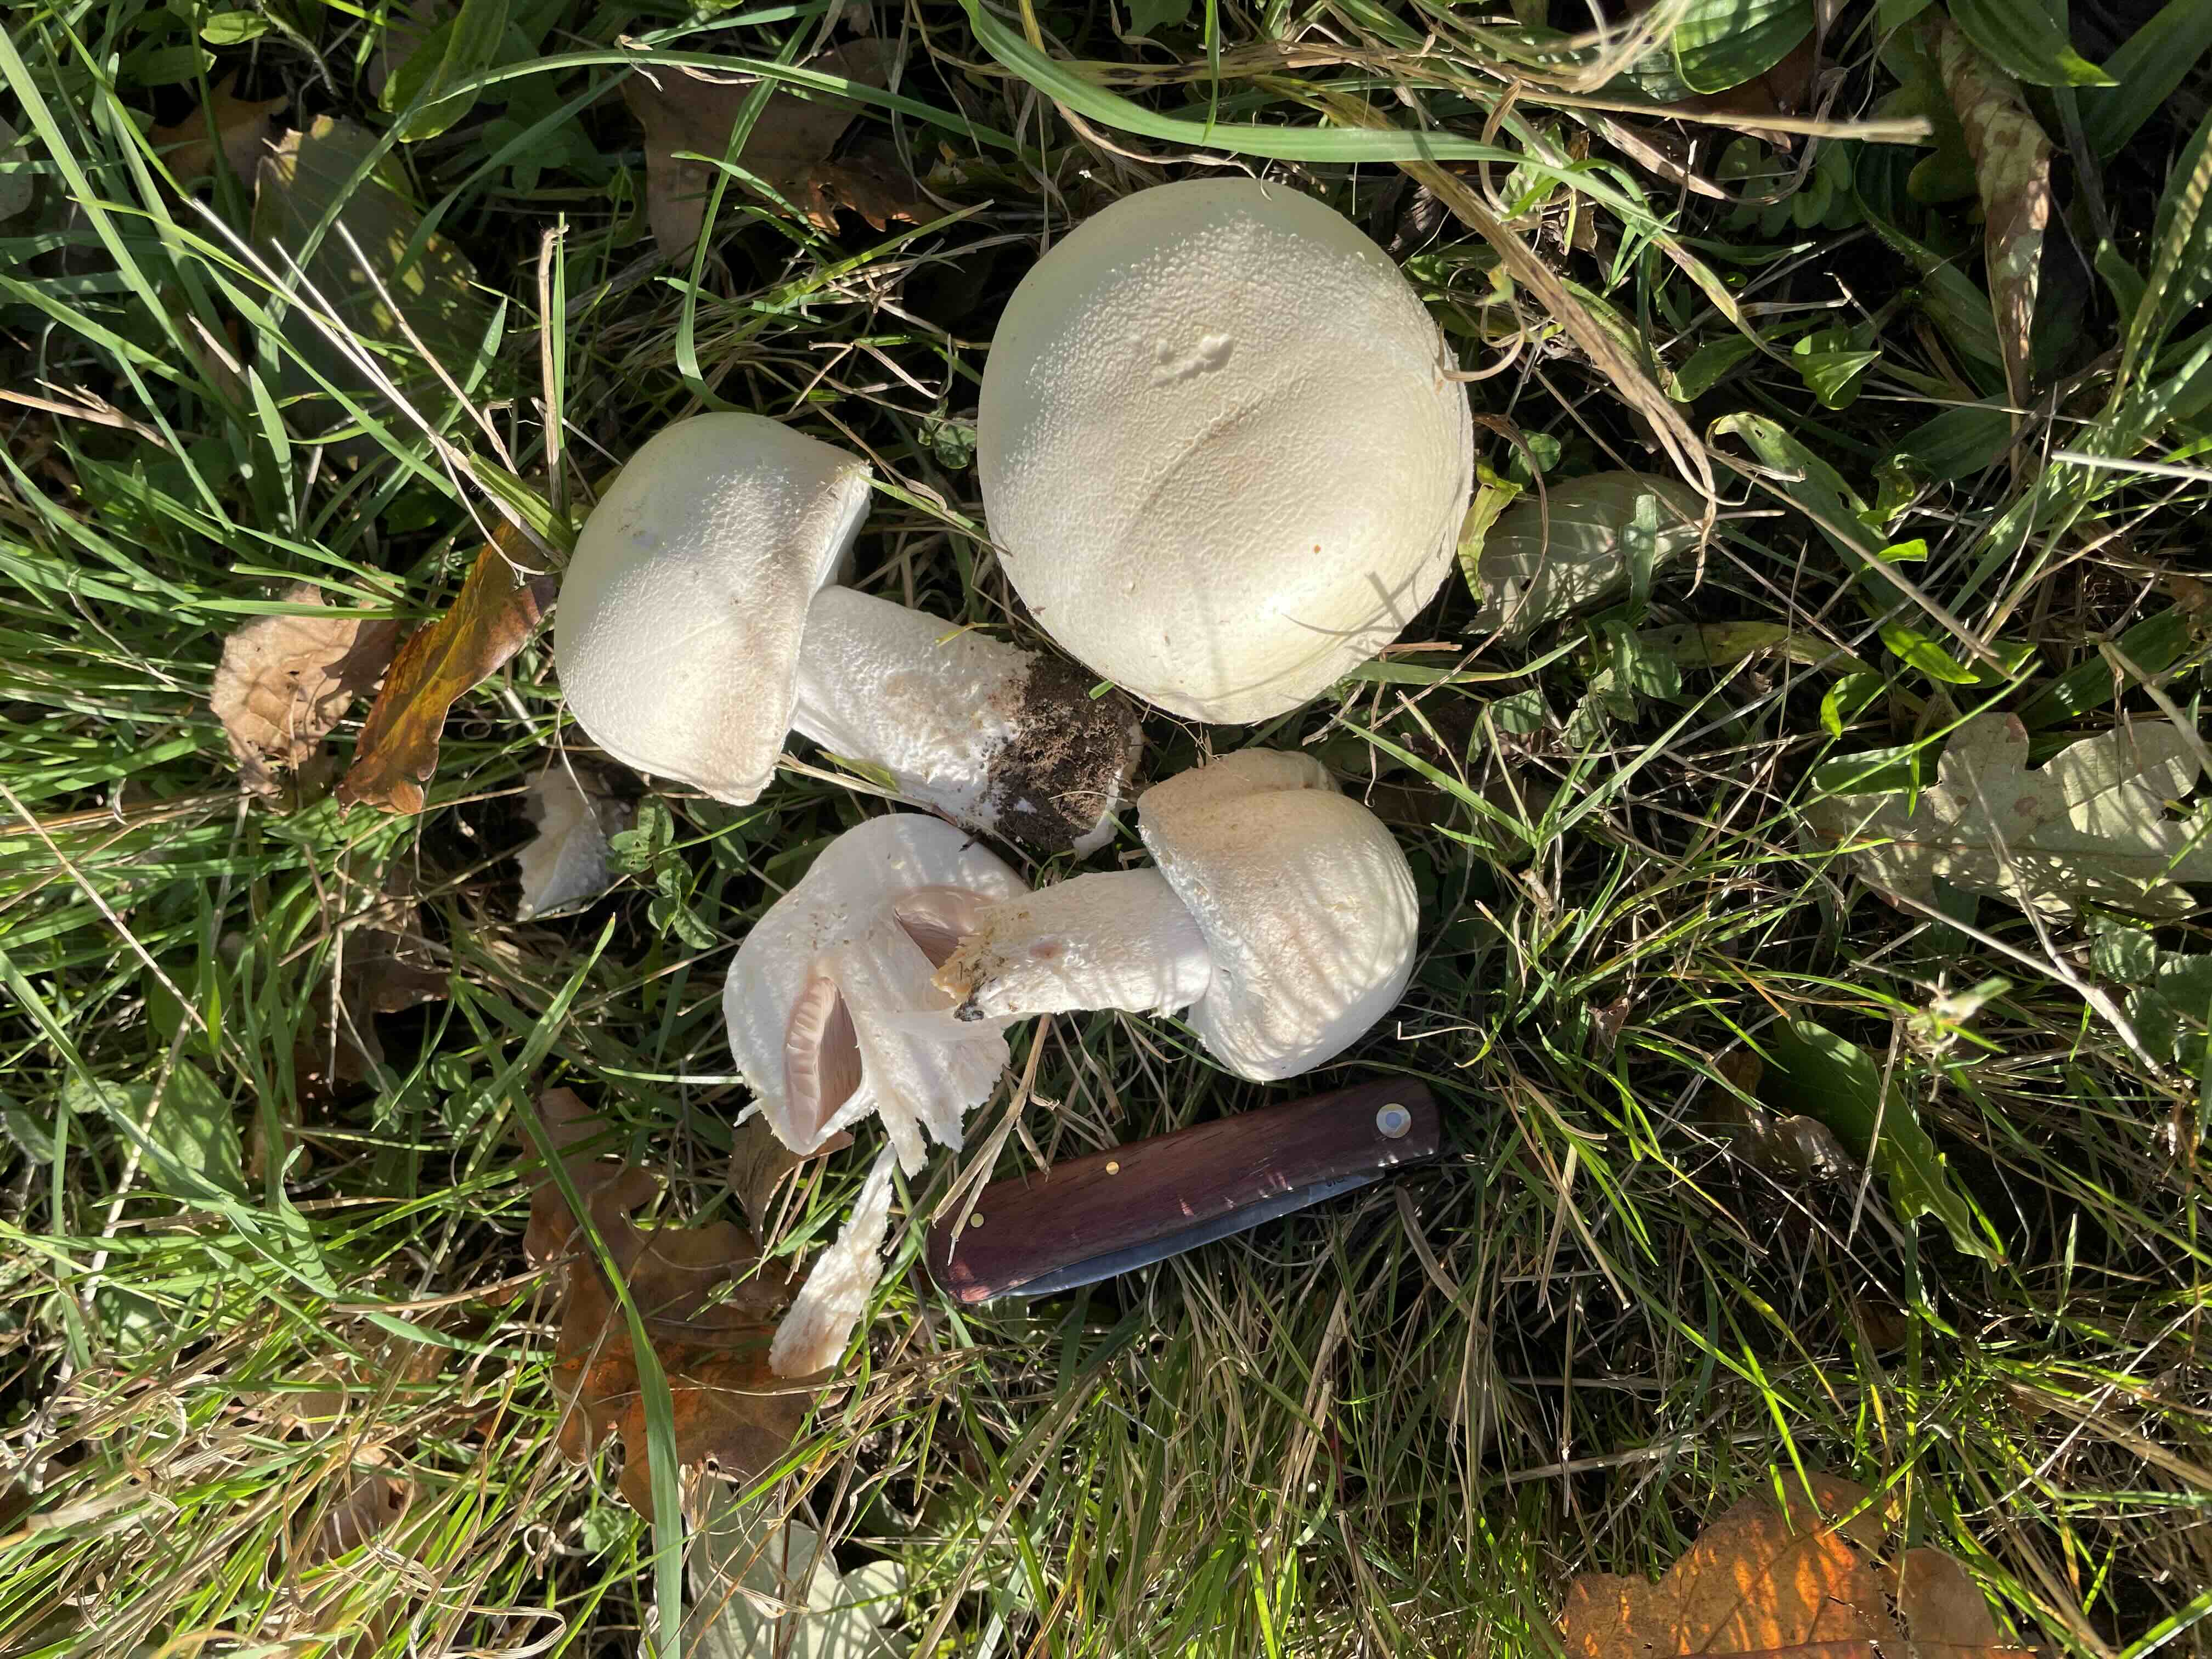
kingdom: Fungi
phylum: Basidiomycota
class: Agaricomycetes
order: Agaricales
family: Agaricaceae
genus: Agaricus
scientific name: Agaricus
